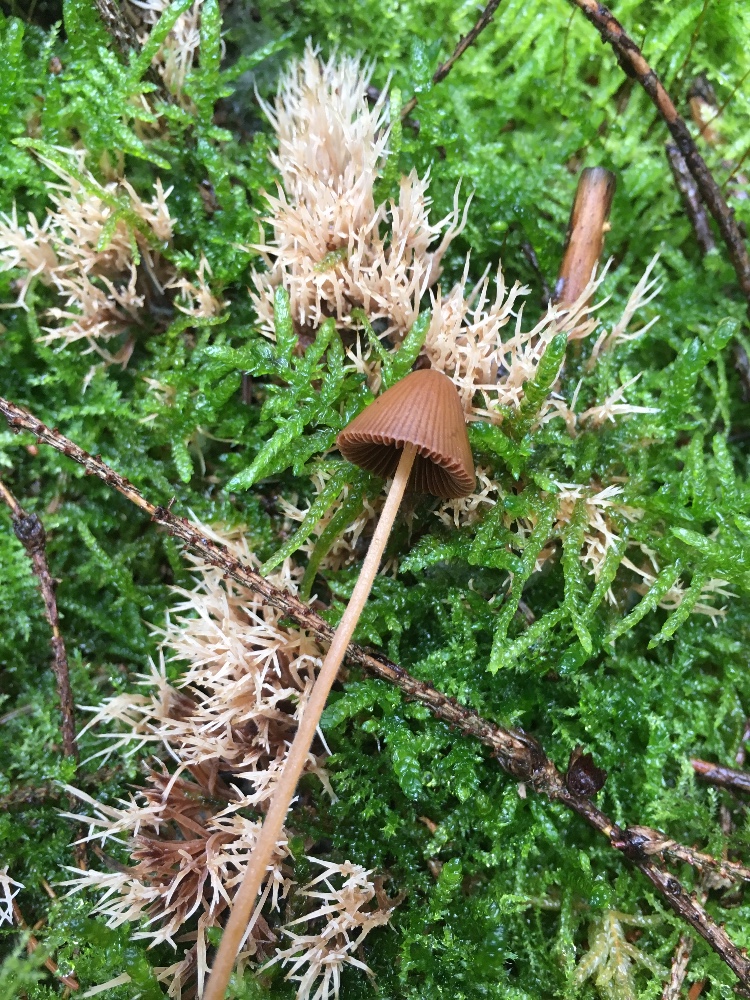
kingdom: Fungi
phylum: Basidiomycota
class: Agaricomycetes
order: Agaricales
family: Bolbitiaceae
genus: Conocybe
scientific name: Conocybe subpubescens
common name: krat-keglehat
